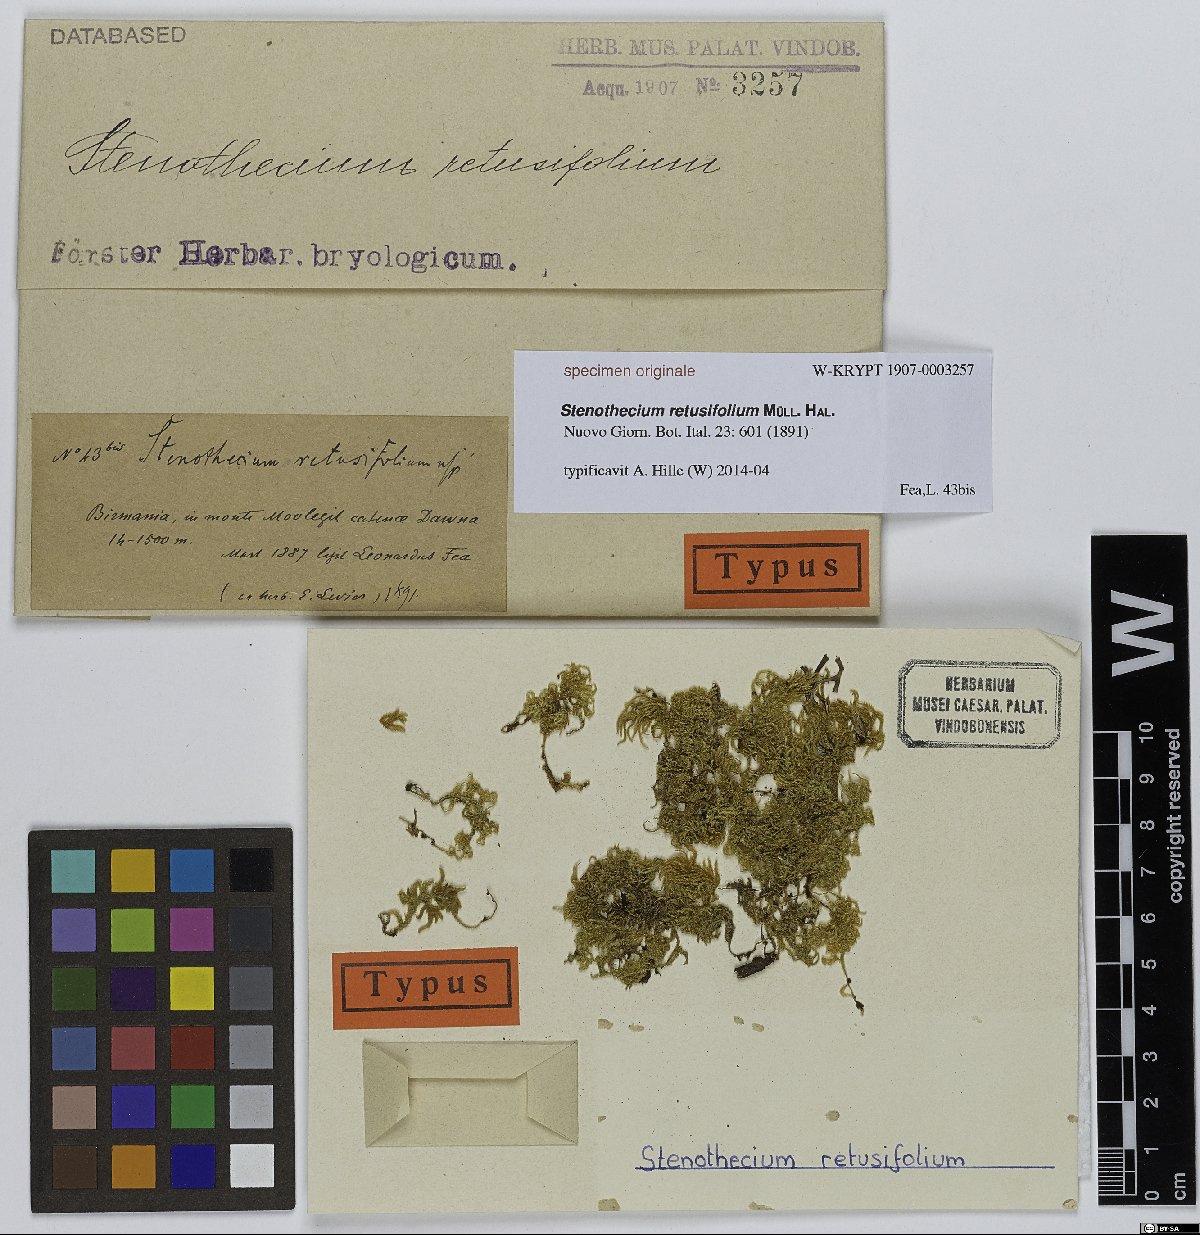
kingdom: Plantae
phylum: Bryophyta
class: Bryopsida
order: Hypnales
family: Hylocomiaceae
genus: Leptohymenium
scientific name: Leptohymenium
